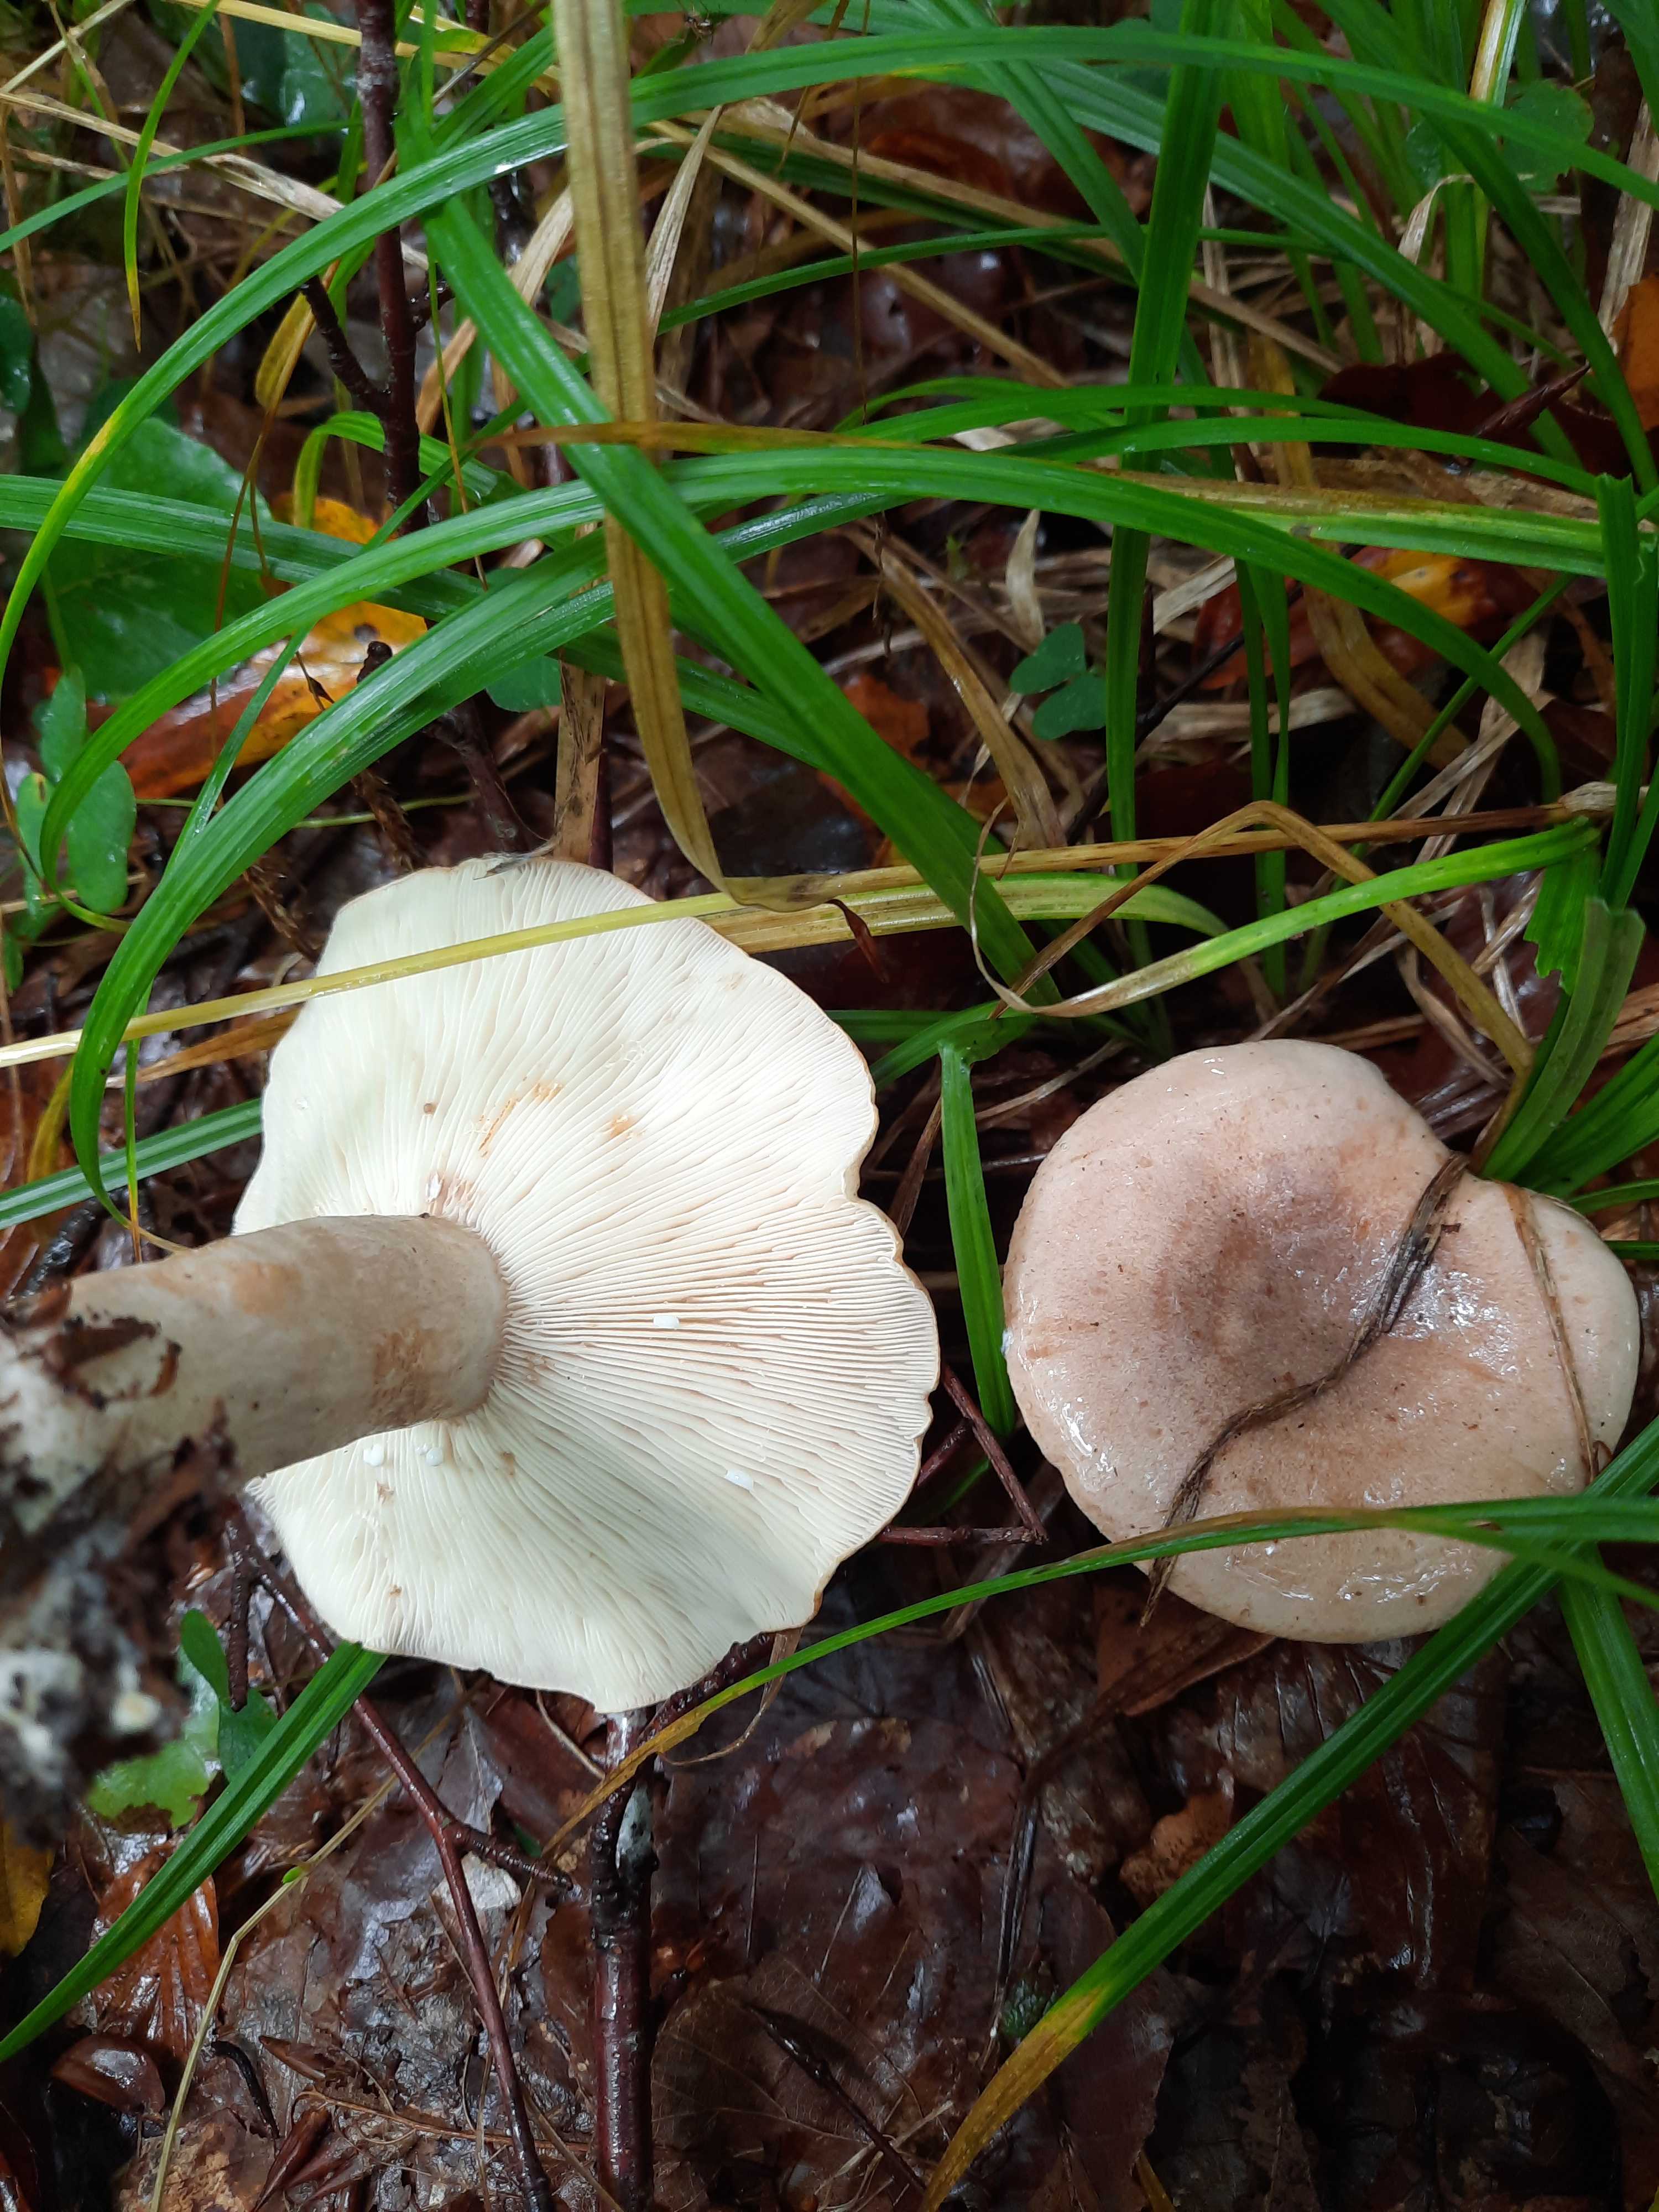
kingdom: Fungi
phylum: Basidiomycota
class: Agaricomycetes
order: Russulales
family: Russulaceae
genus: Lactarius
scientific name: Lactarius pallidus
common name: bleg mælkehat
